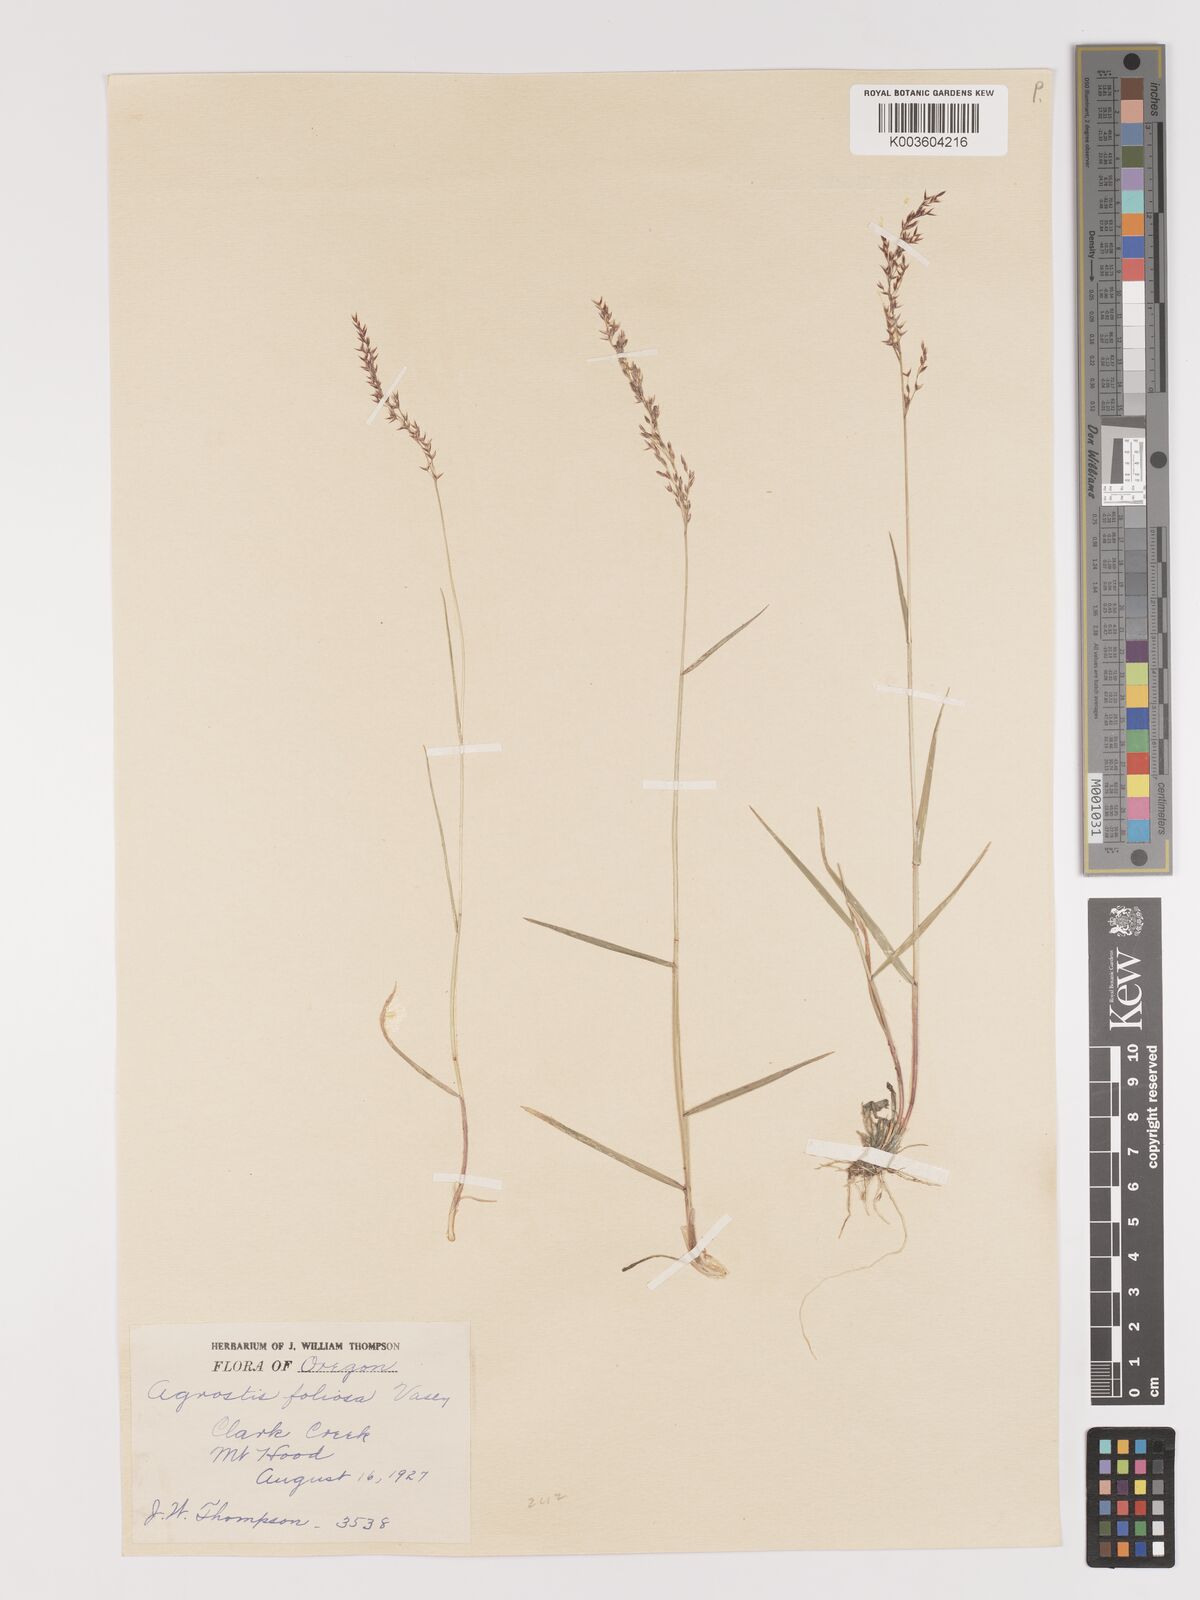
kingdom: Plantae
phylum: Tracheophyta
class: Liliopsida
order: Poales
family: Poaceae
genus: Agrostis
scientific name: Agrostis pallens
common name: Dune bent
